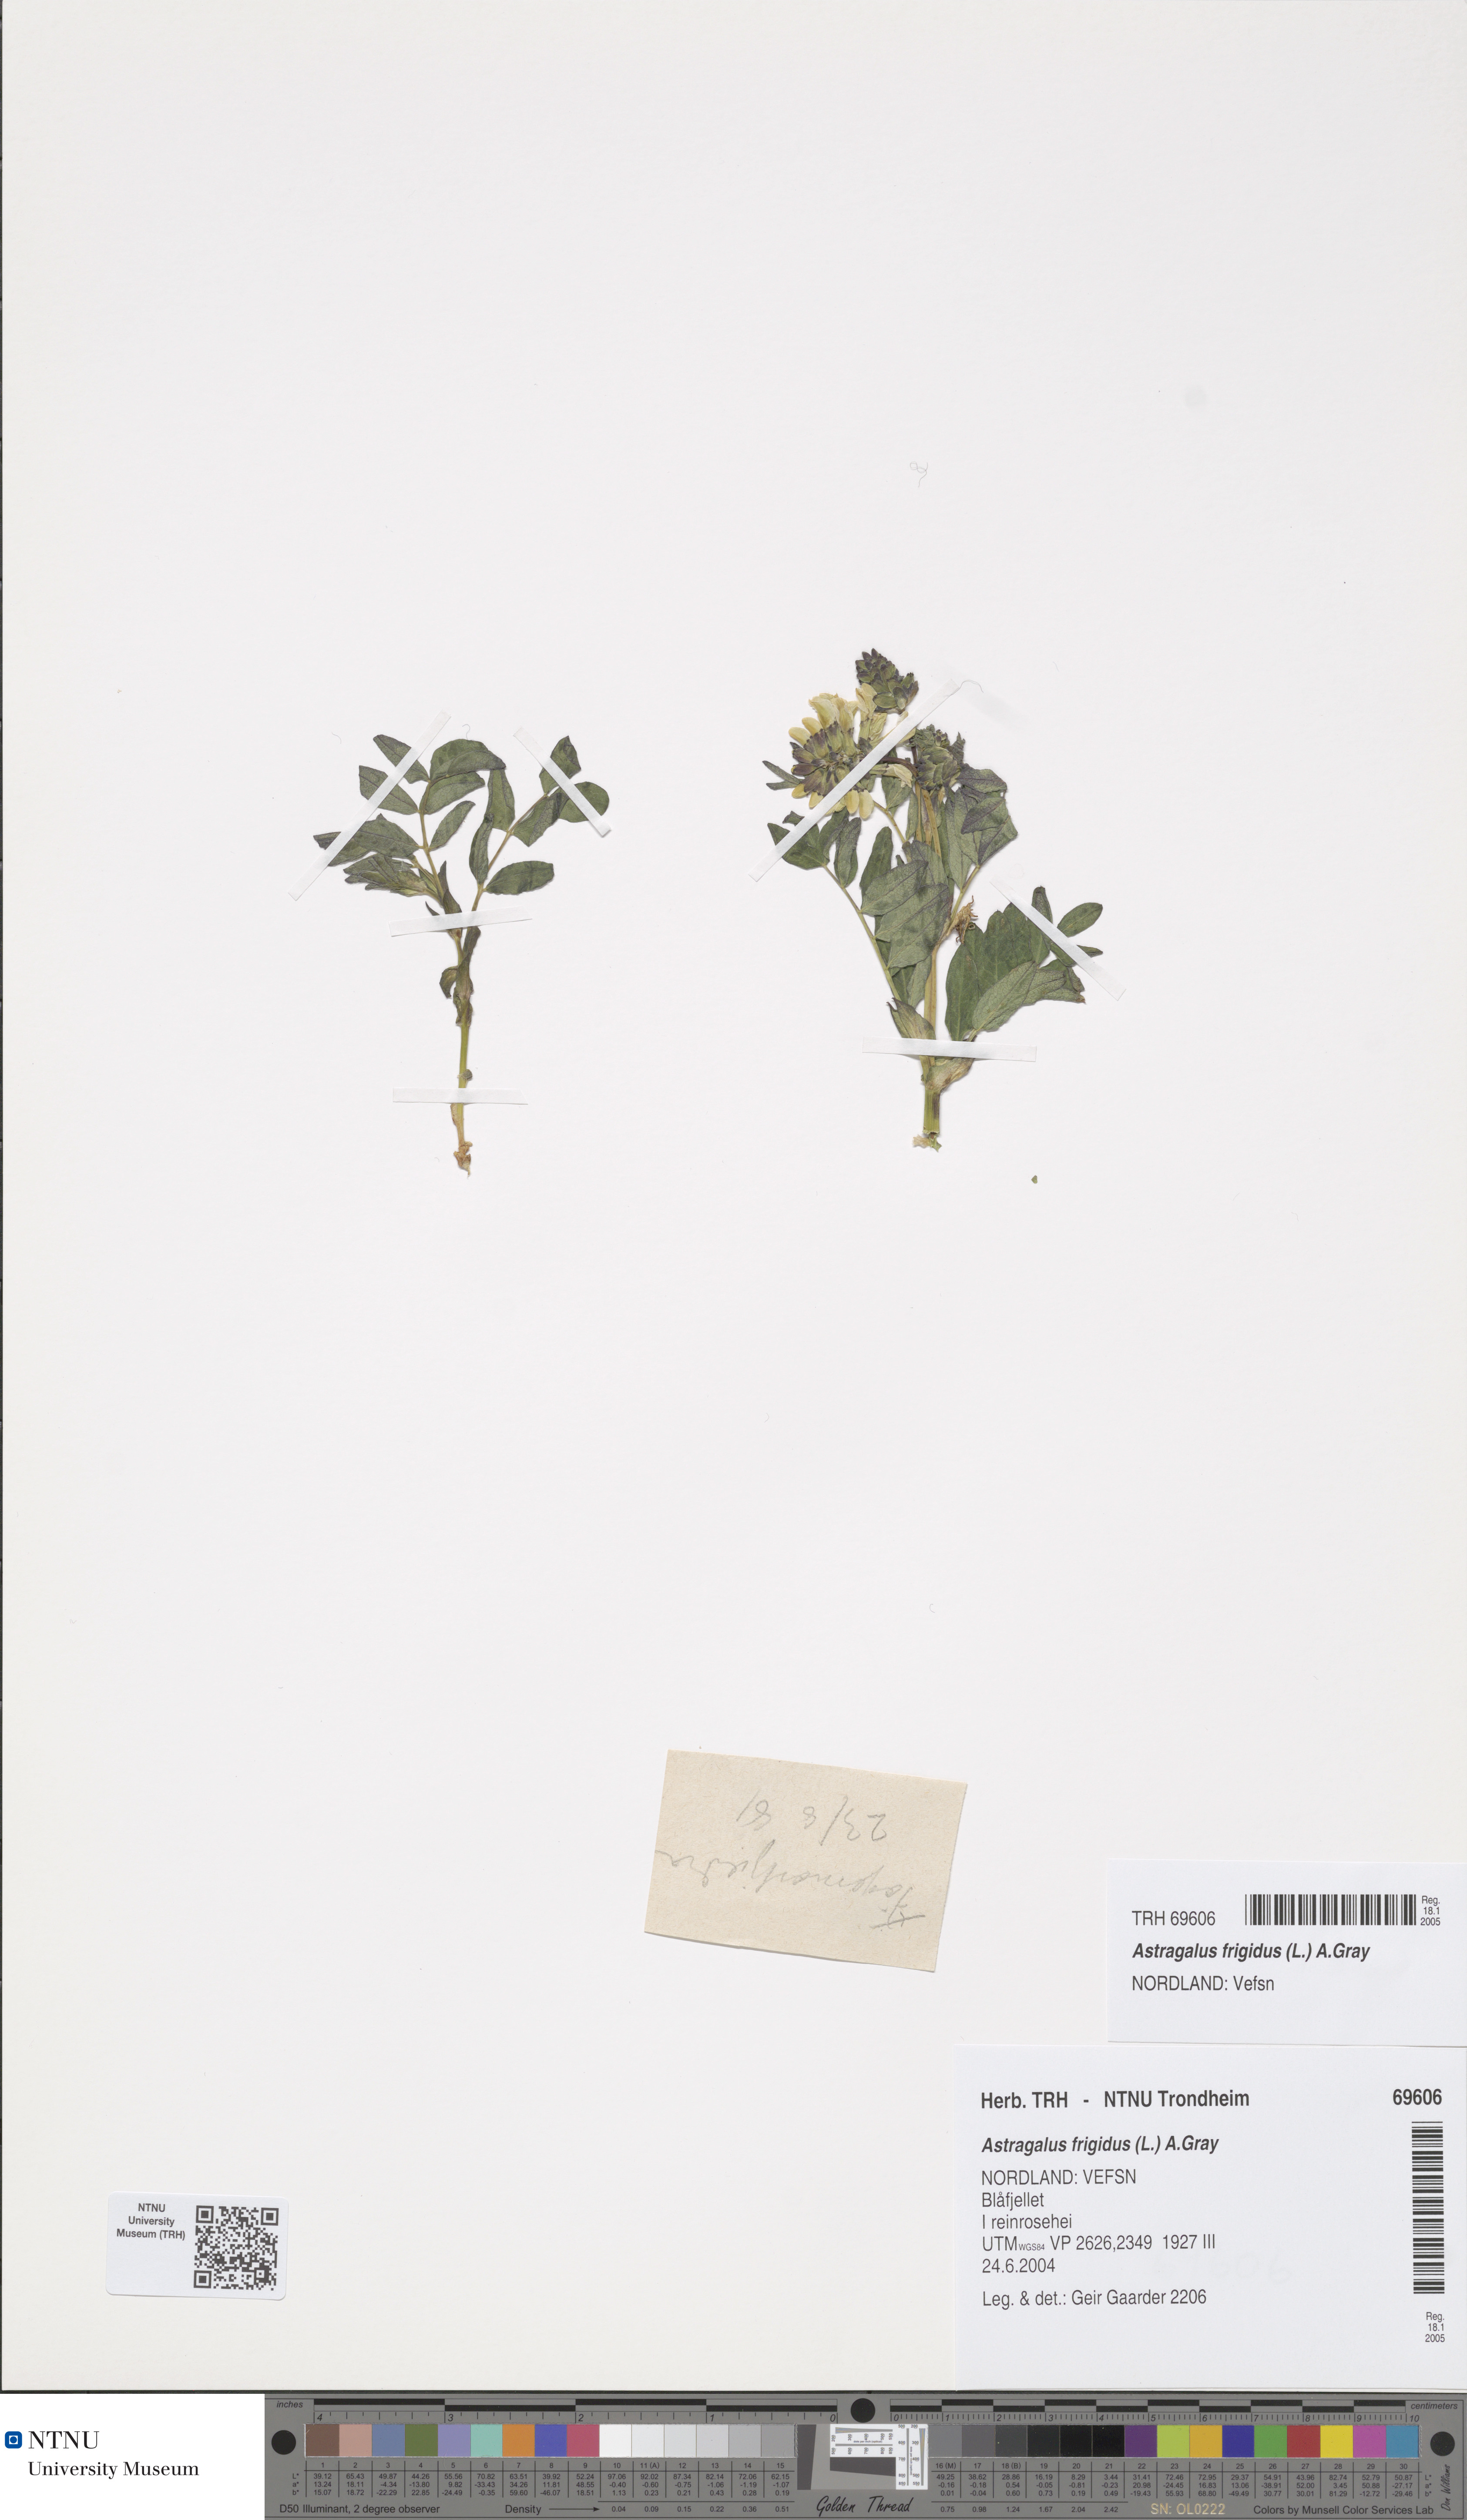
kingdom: Plantae
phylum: Tracheophyta
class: Magnoliopsida
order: Fabales
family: Fabaceae
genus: Astragalus
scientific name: Astragalus frigidus
